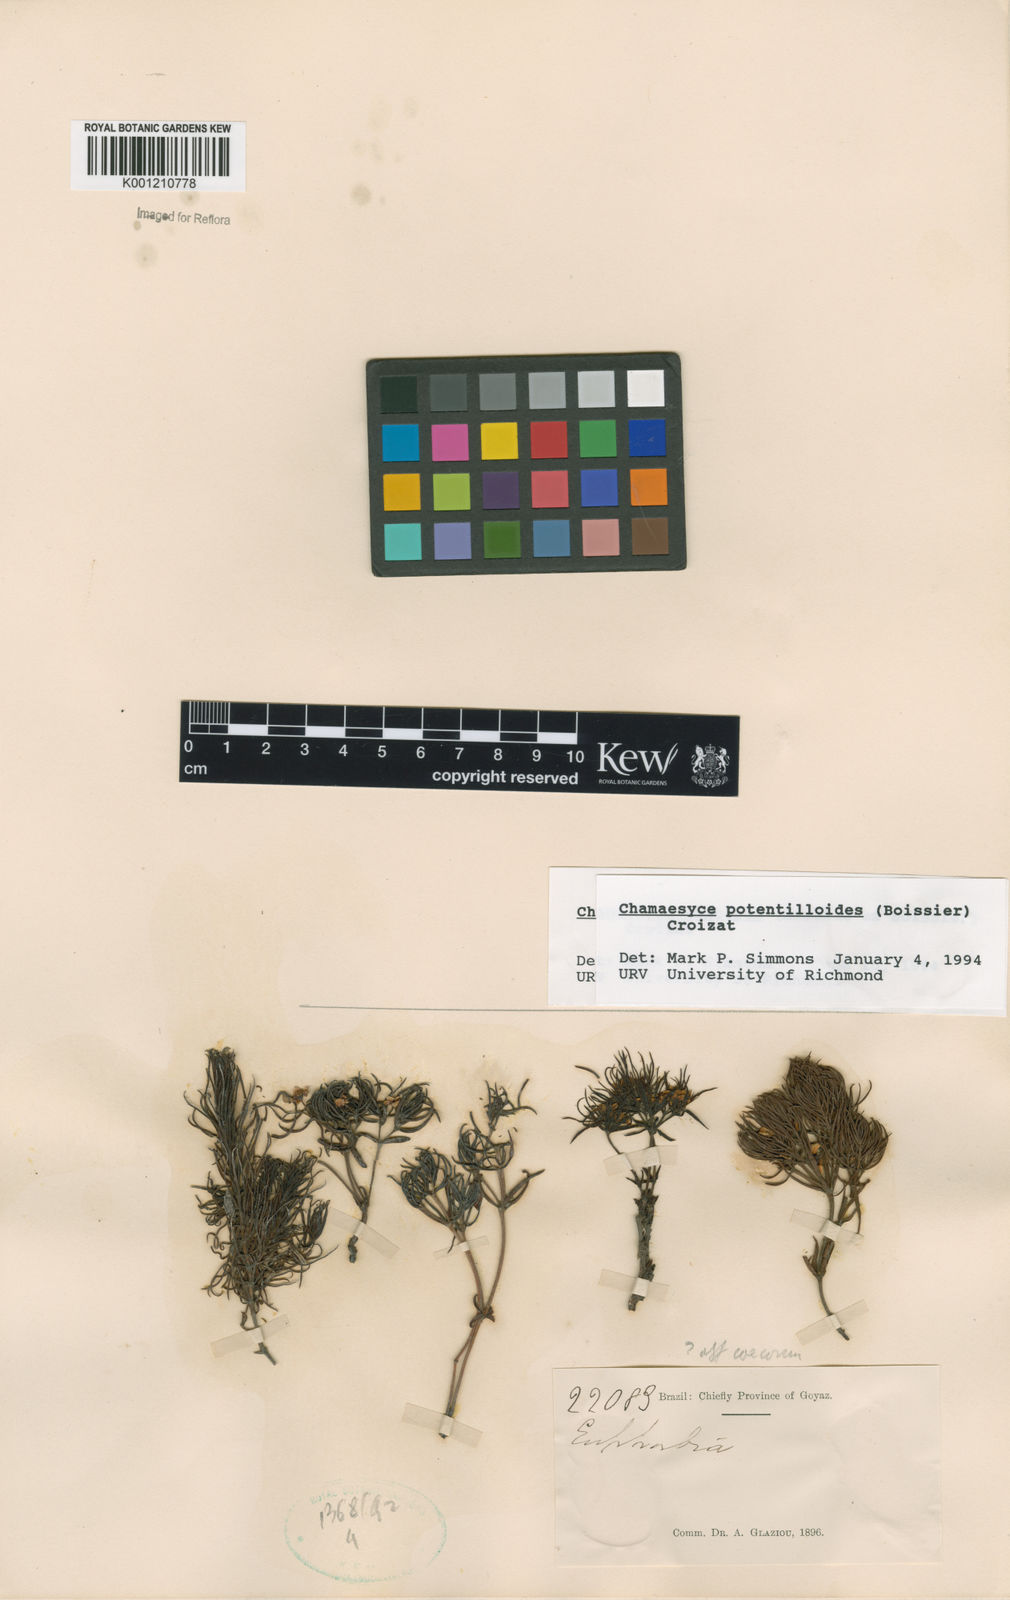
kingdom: Plantae
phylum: Tracheophyta
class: Magnoliopsida
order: Malpighiales
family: Euphorbiaceae
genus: Euphorbia
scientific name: Euphorbia potentilloides
